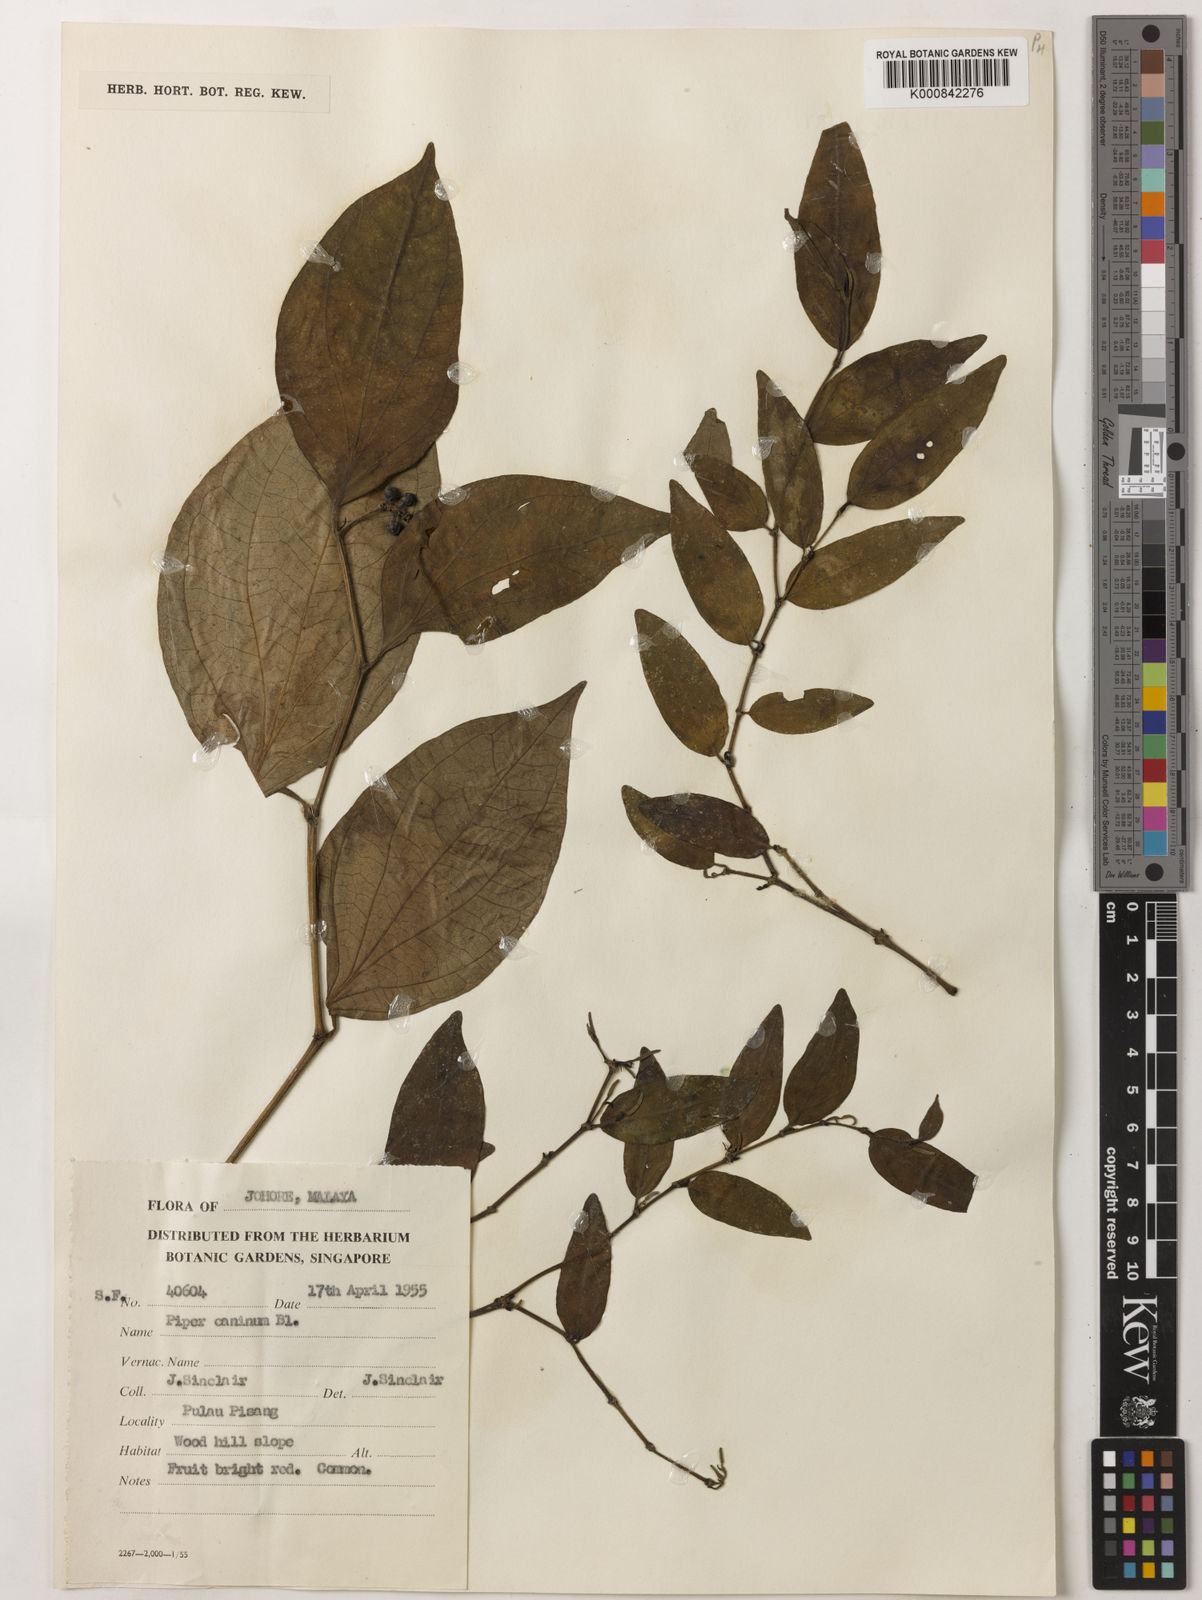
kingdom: Plantae
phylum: Tracheophyta
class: Magnoliopsida
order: Piperales
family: Piperaceae
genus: Piper
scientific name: Piper lanatum
